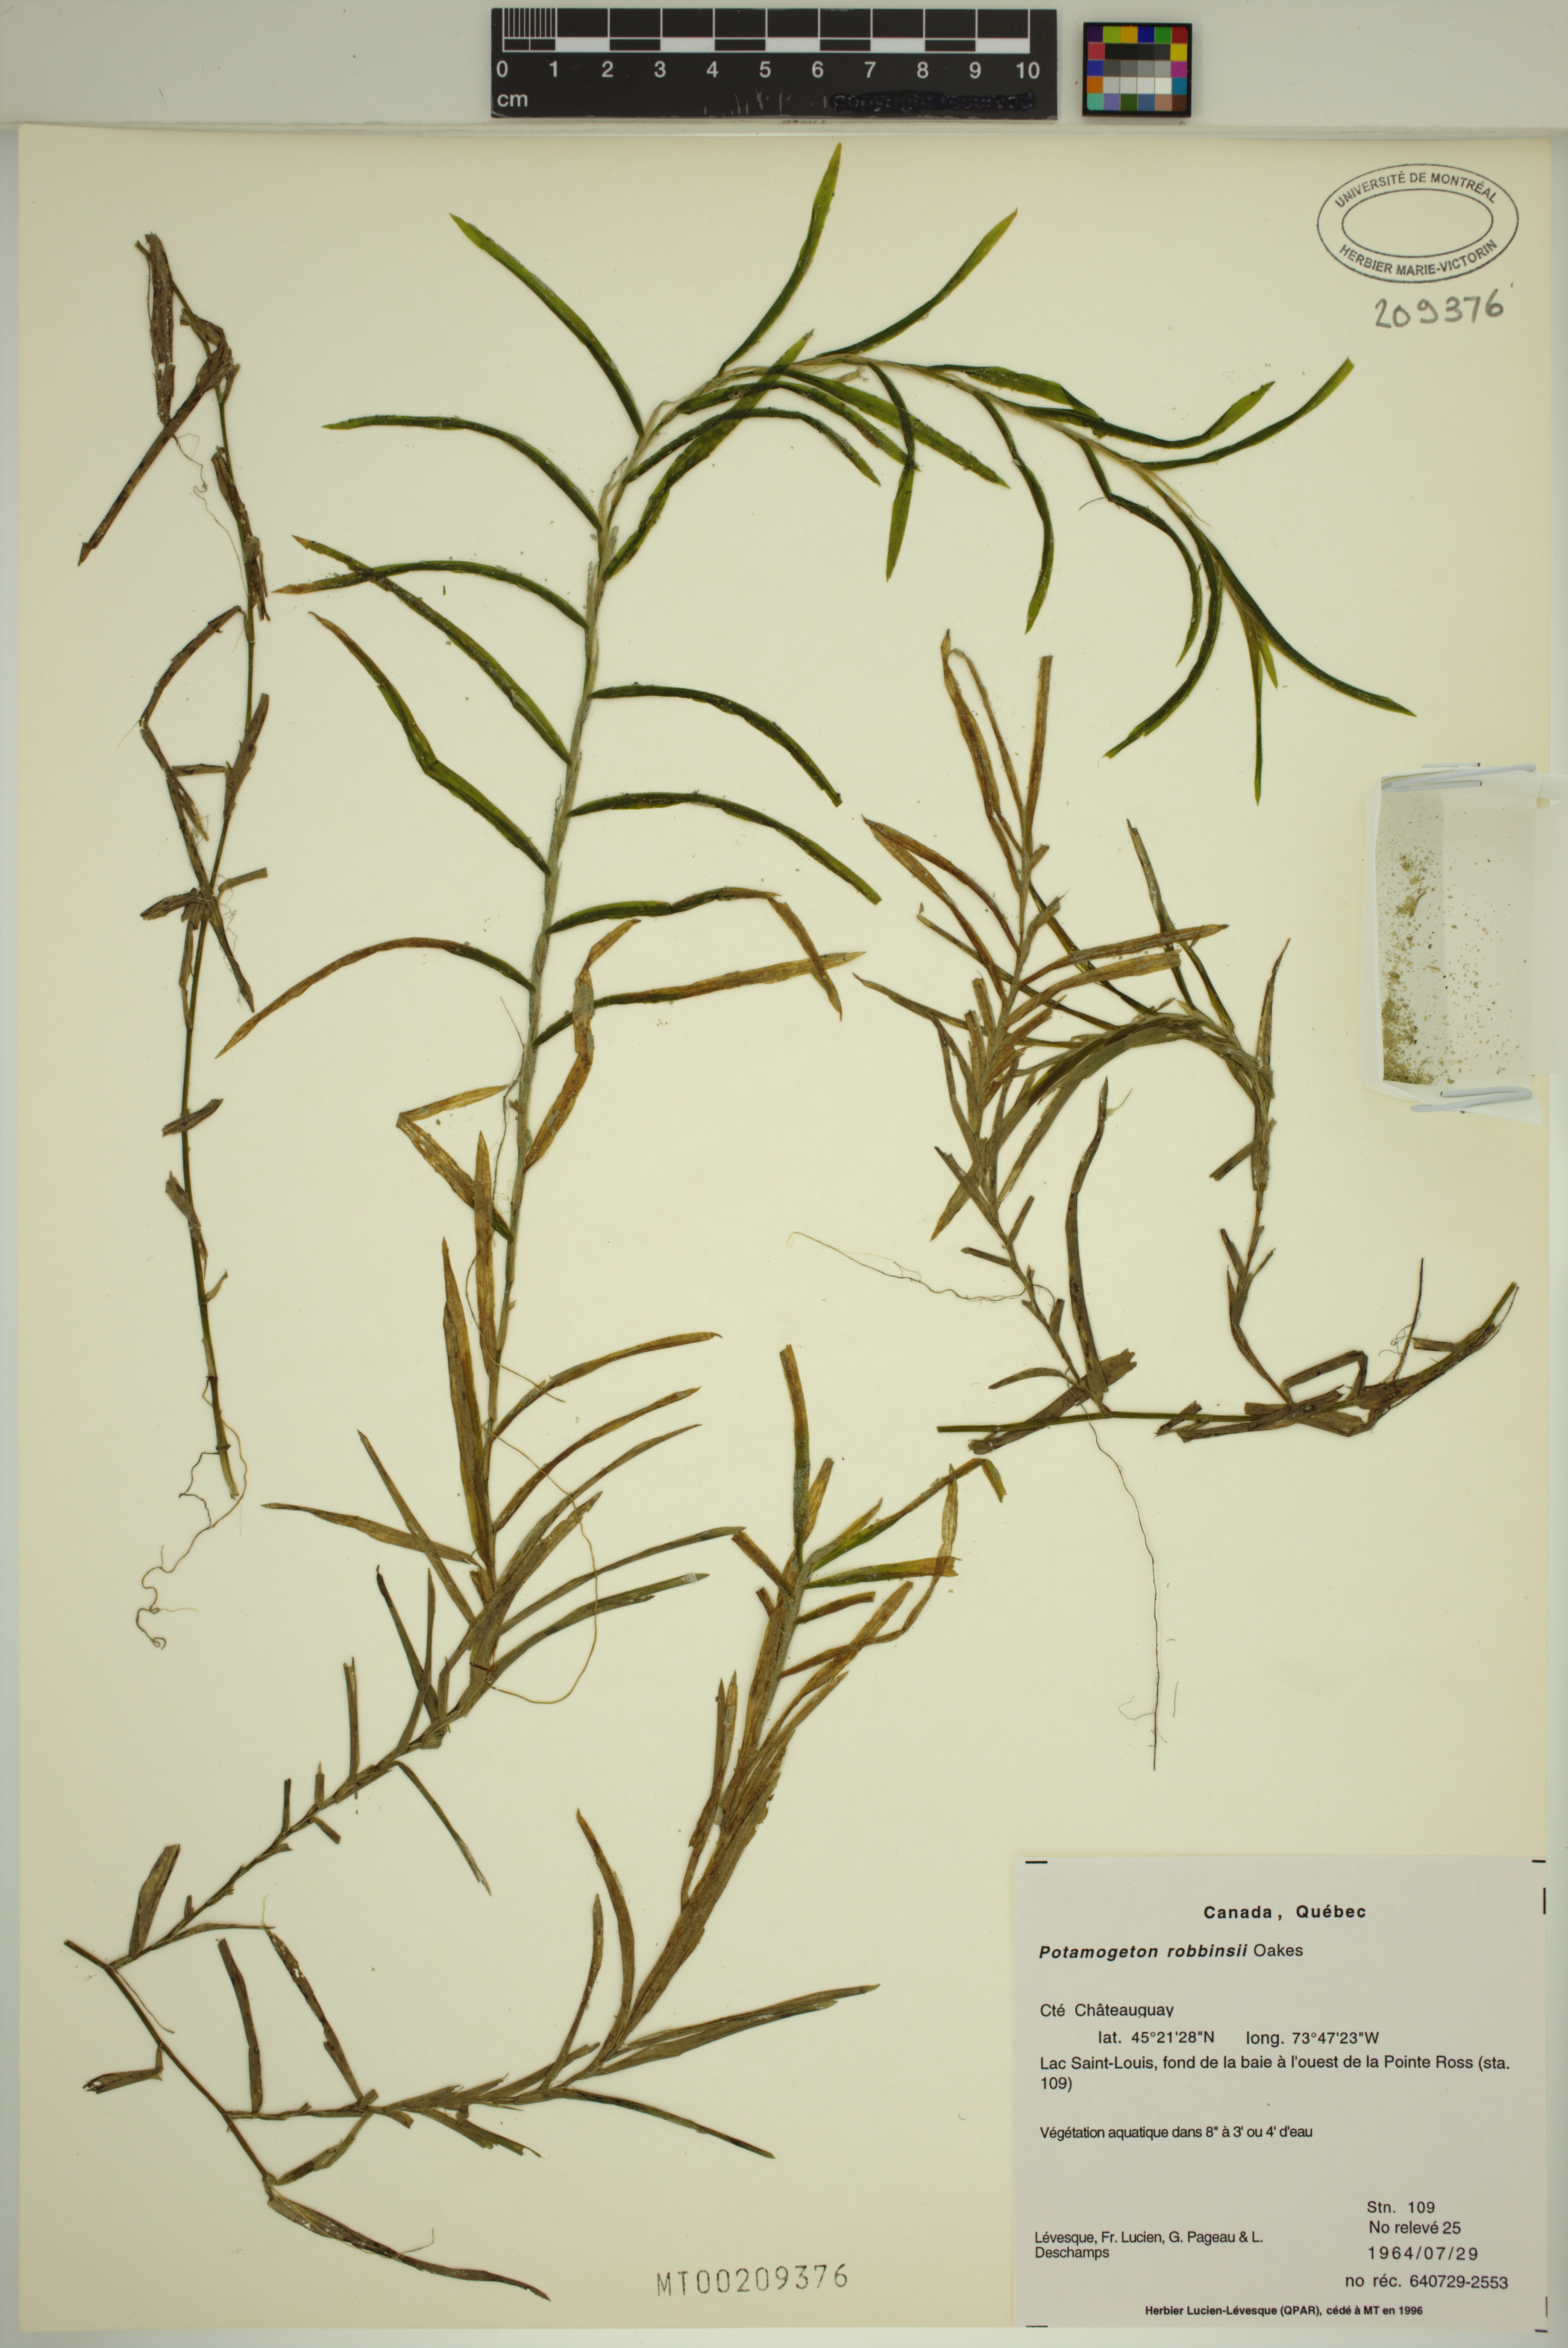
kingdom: Plantae
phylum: Tracheophyta
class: Liliopsida
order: Alismatales
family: Potamogetonaceae
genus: Potamogeton
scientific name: Potamogeton robbinsii
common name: Fern pondweed
